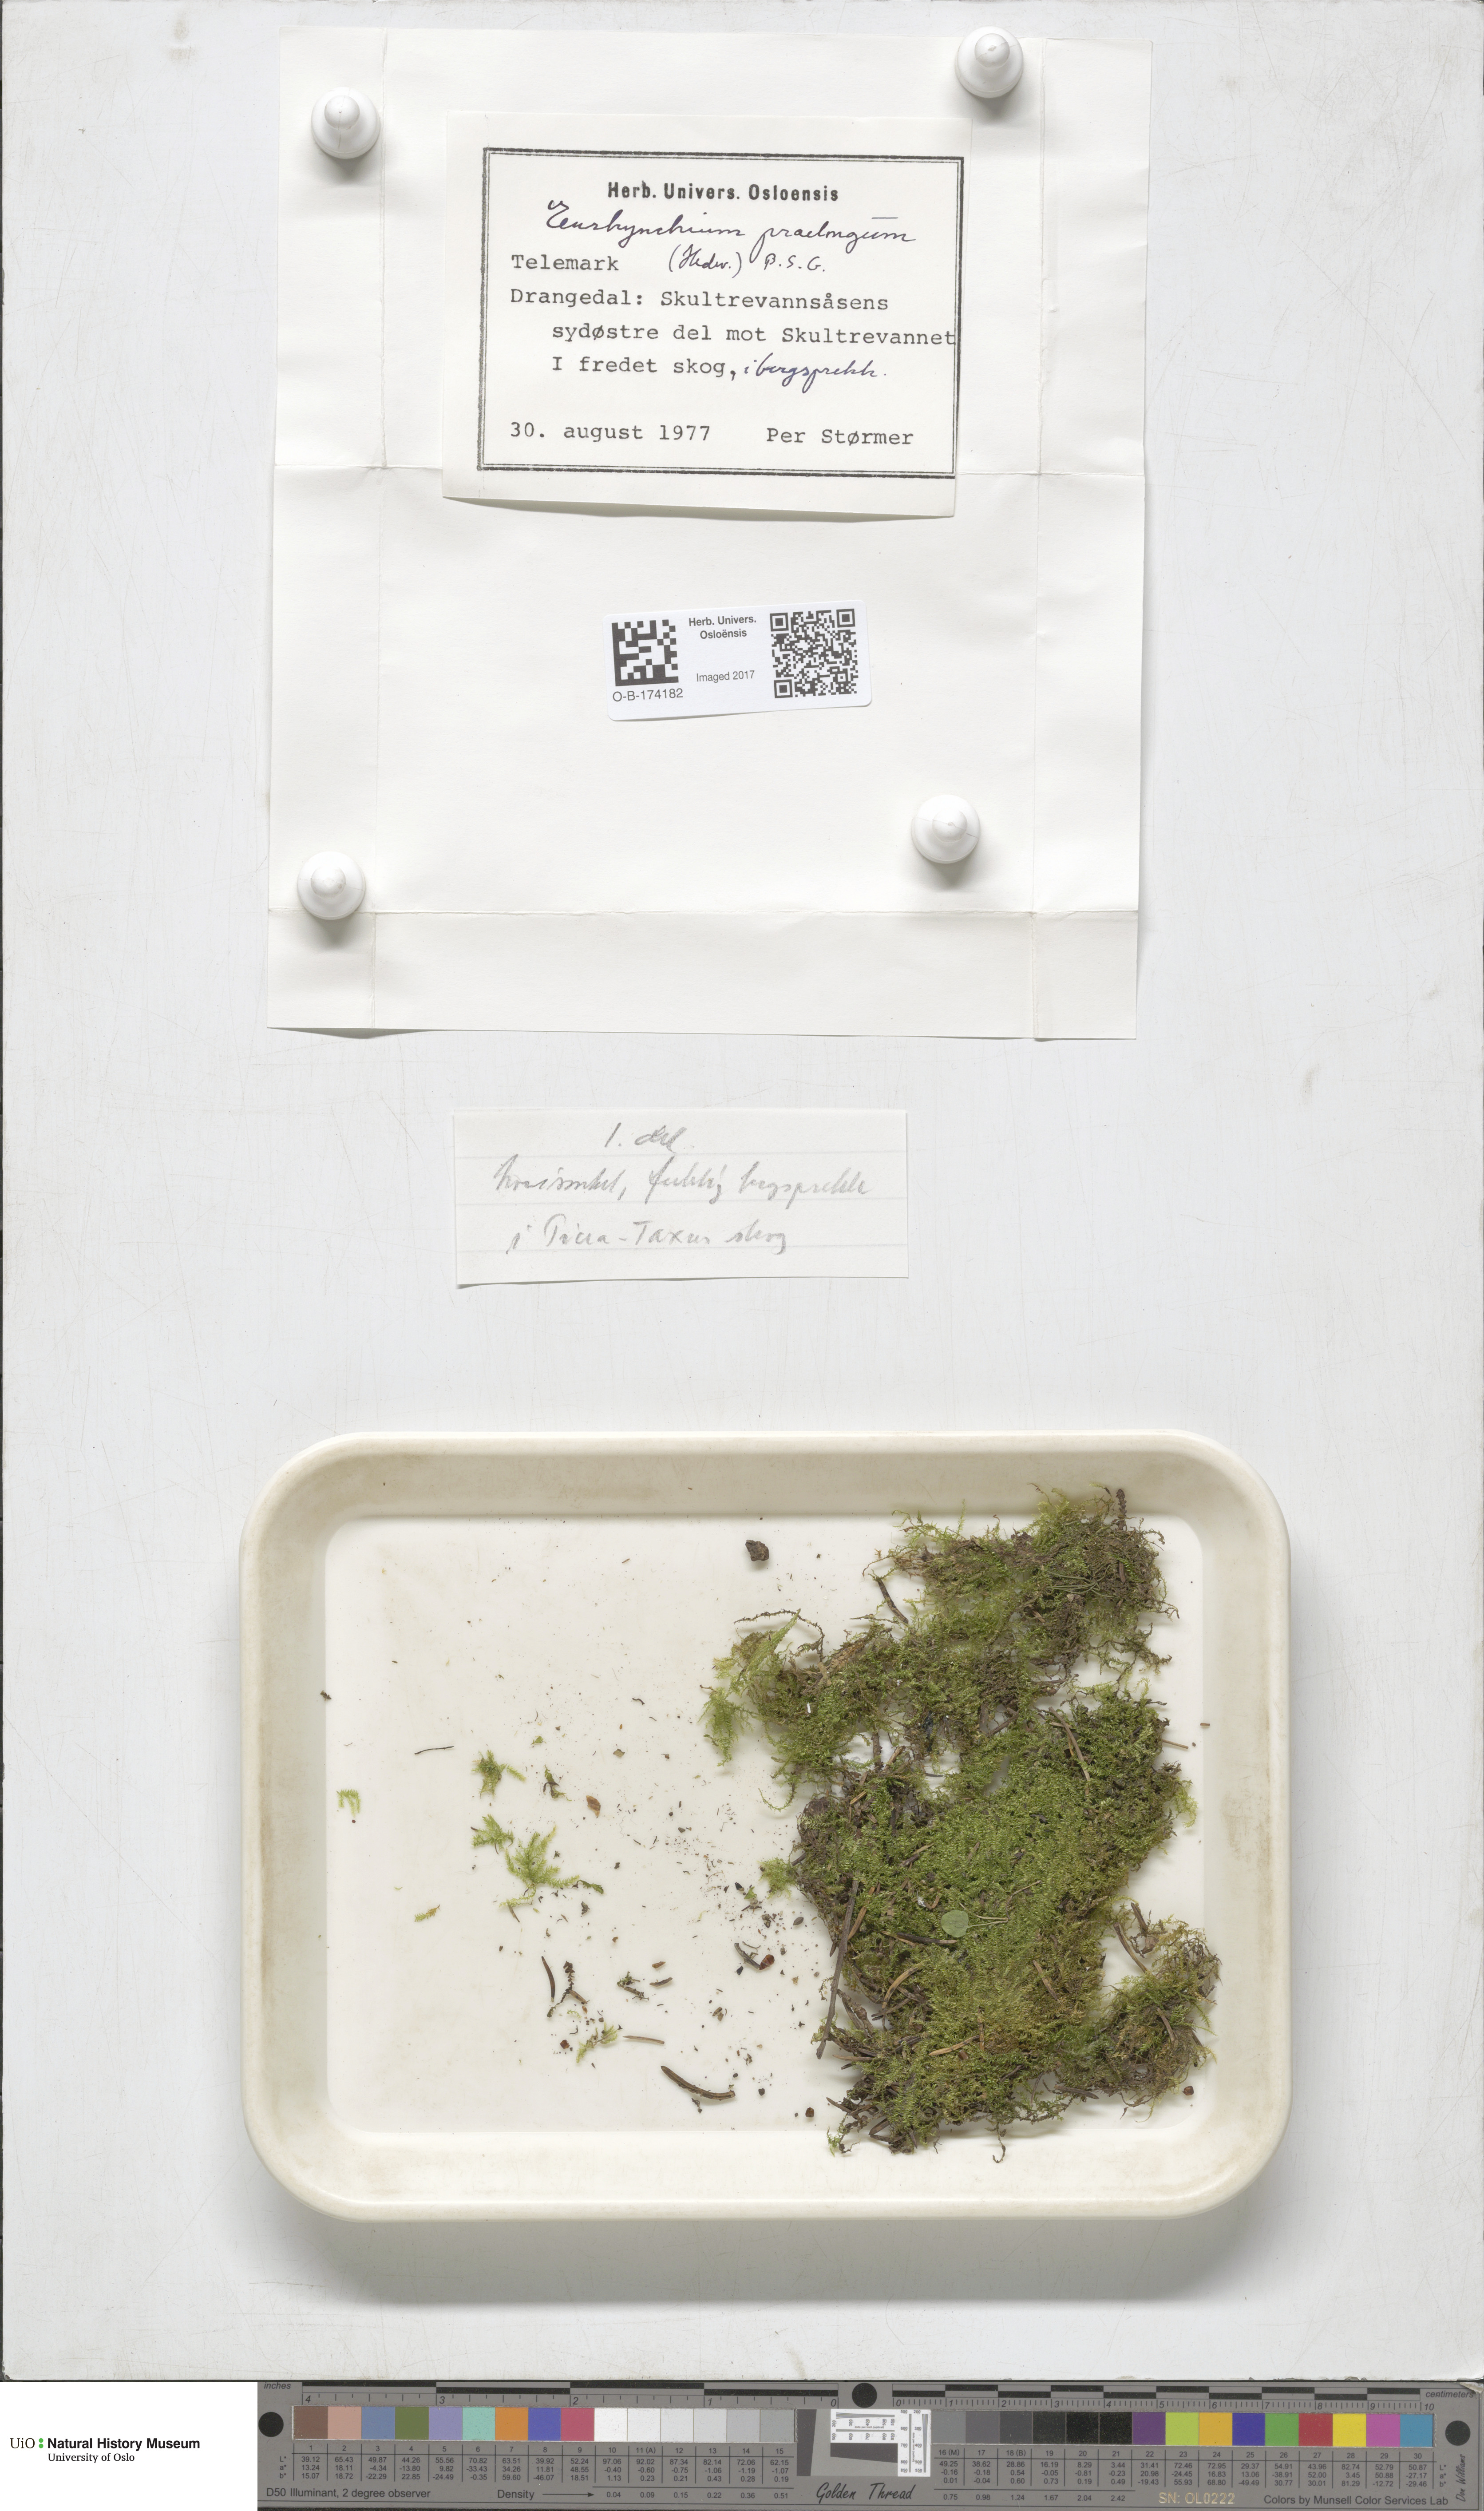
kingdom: Plantae
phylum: Bryophyta
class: Bryopsida
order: Hypnales
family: Brachytheciaceae
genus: Kindbergia
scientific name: Kindbergia praelonga
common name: Slender beaked moss
